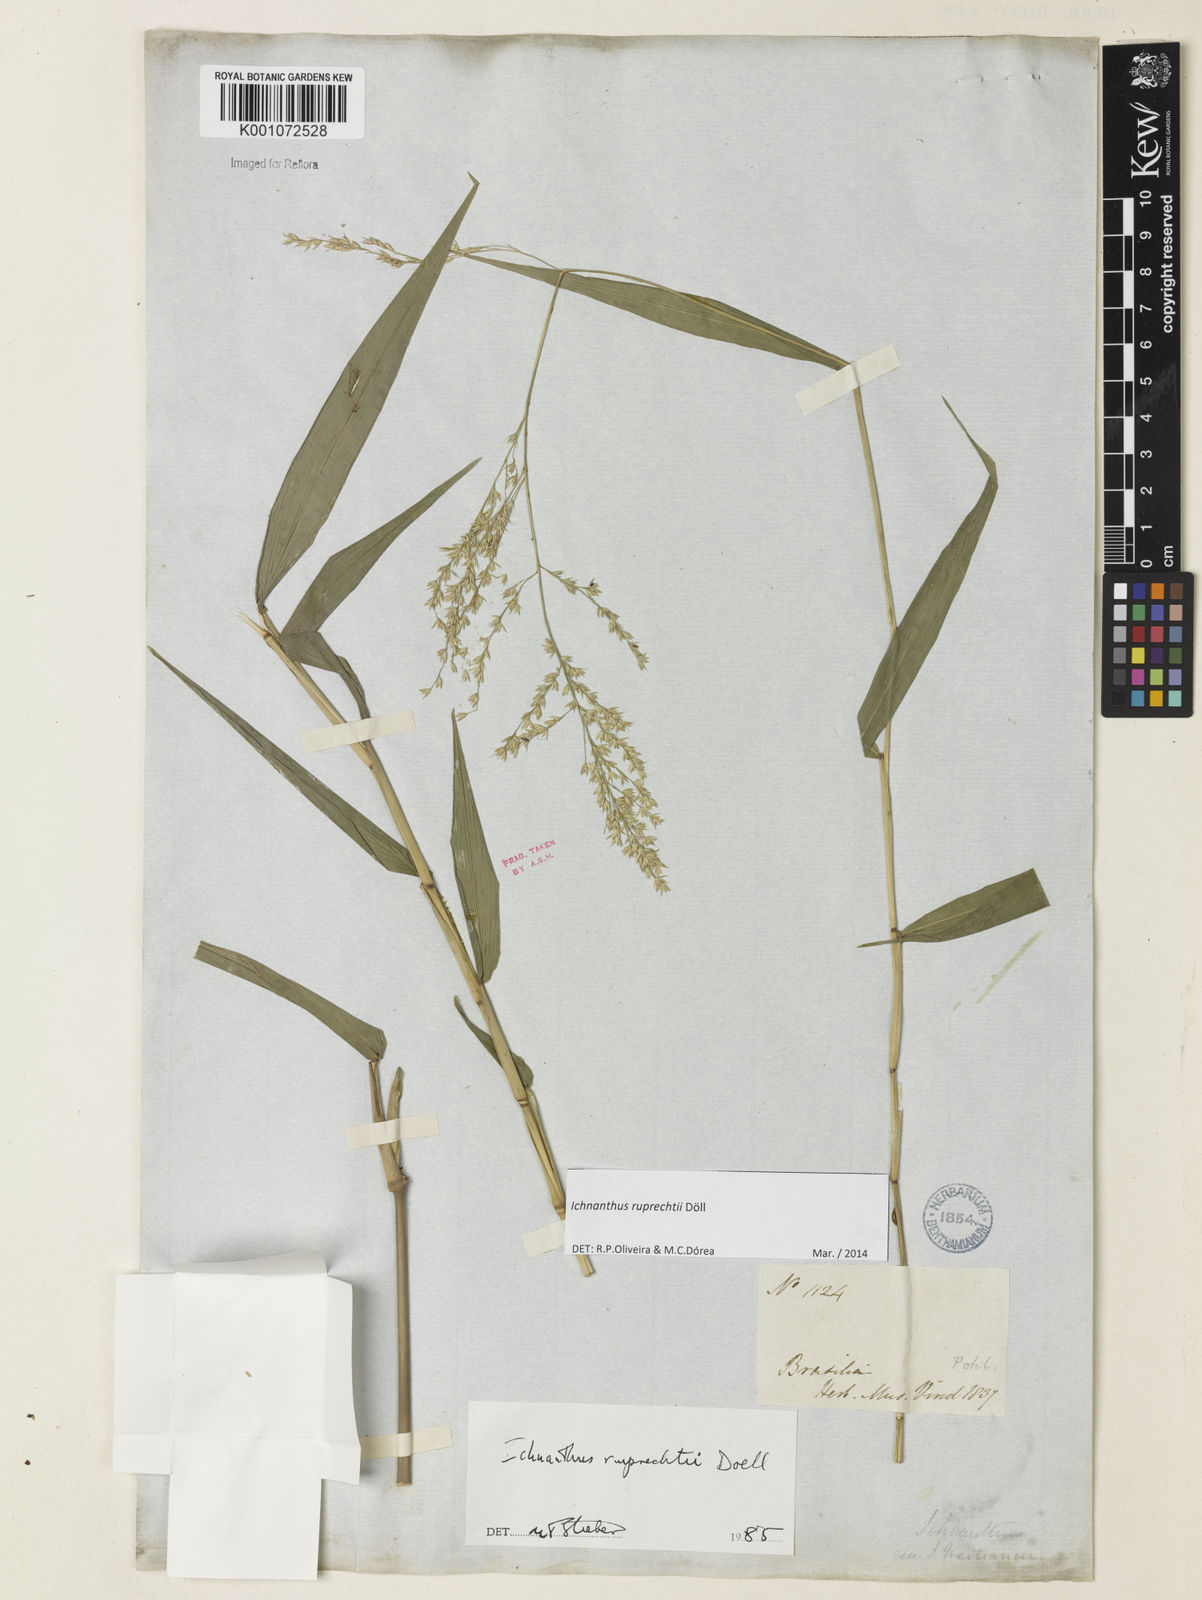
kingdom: Plantae
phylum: Tracheophyta
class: Liliopsida
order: Poales
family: Poaceae
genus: Ichnanthus
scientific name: Ichnanthus
